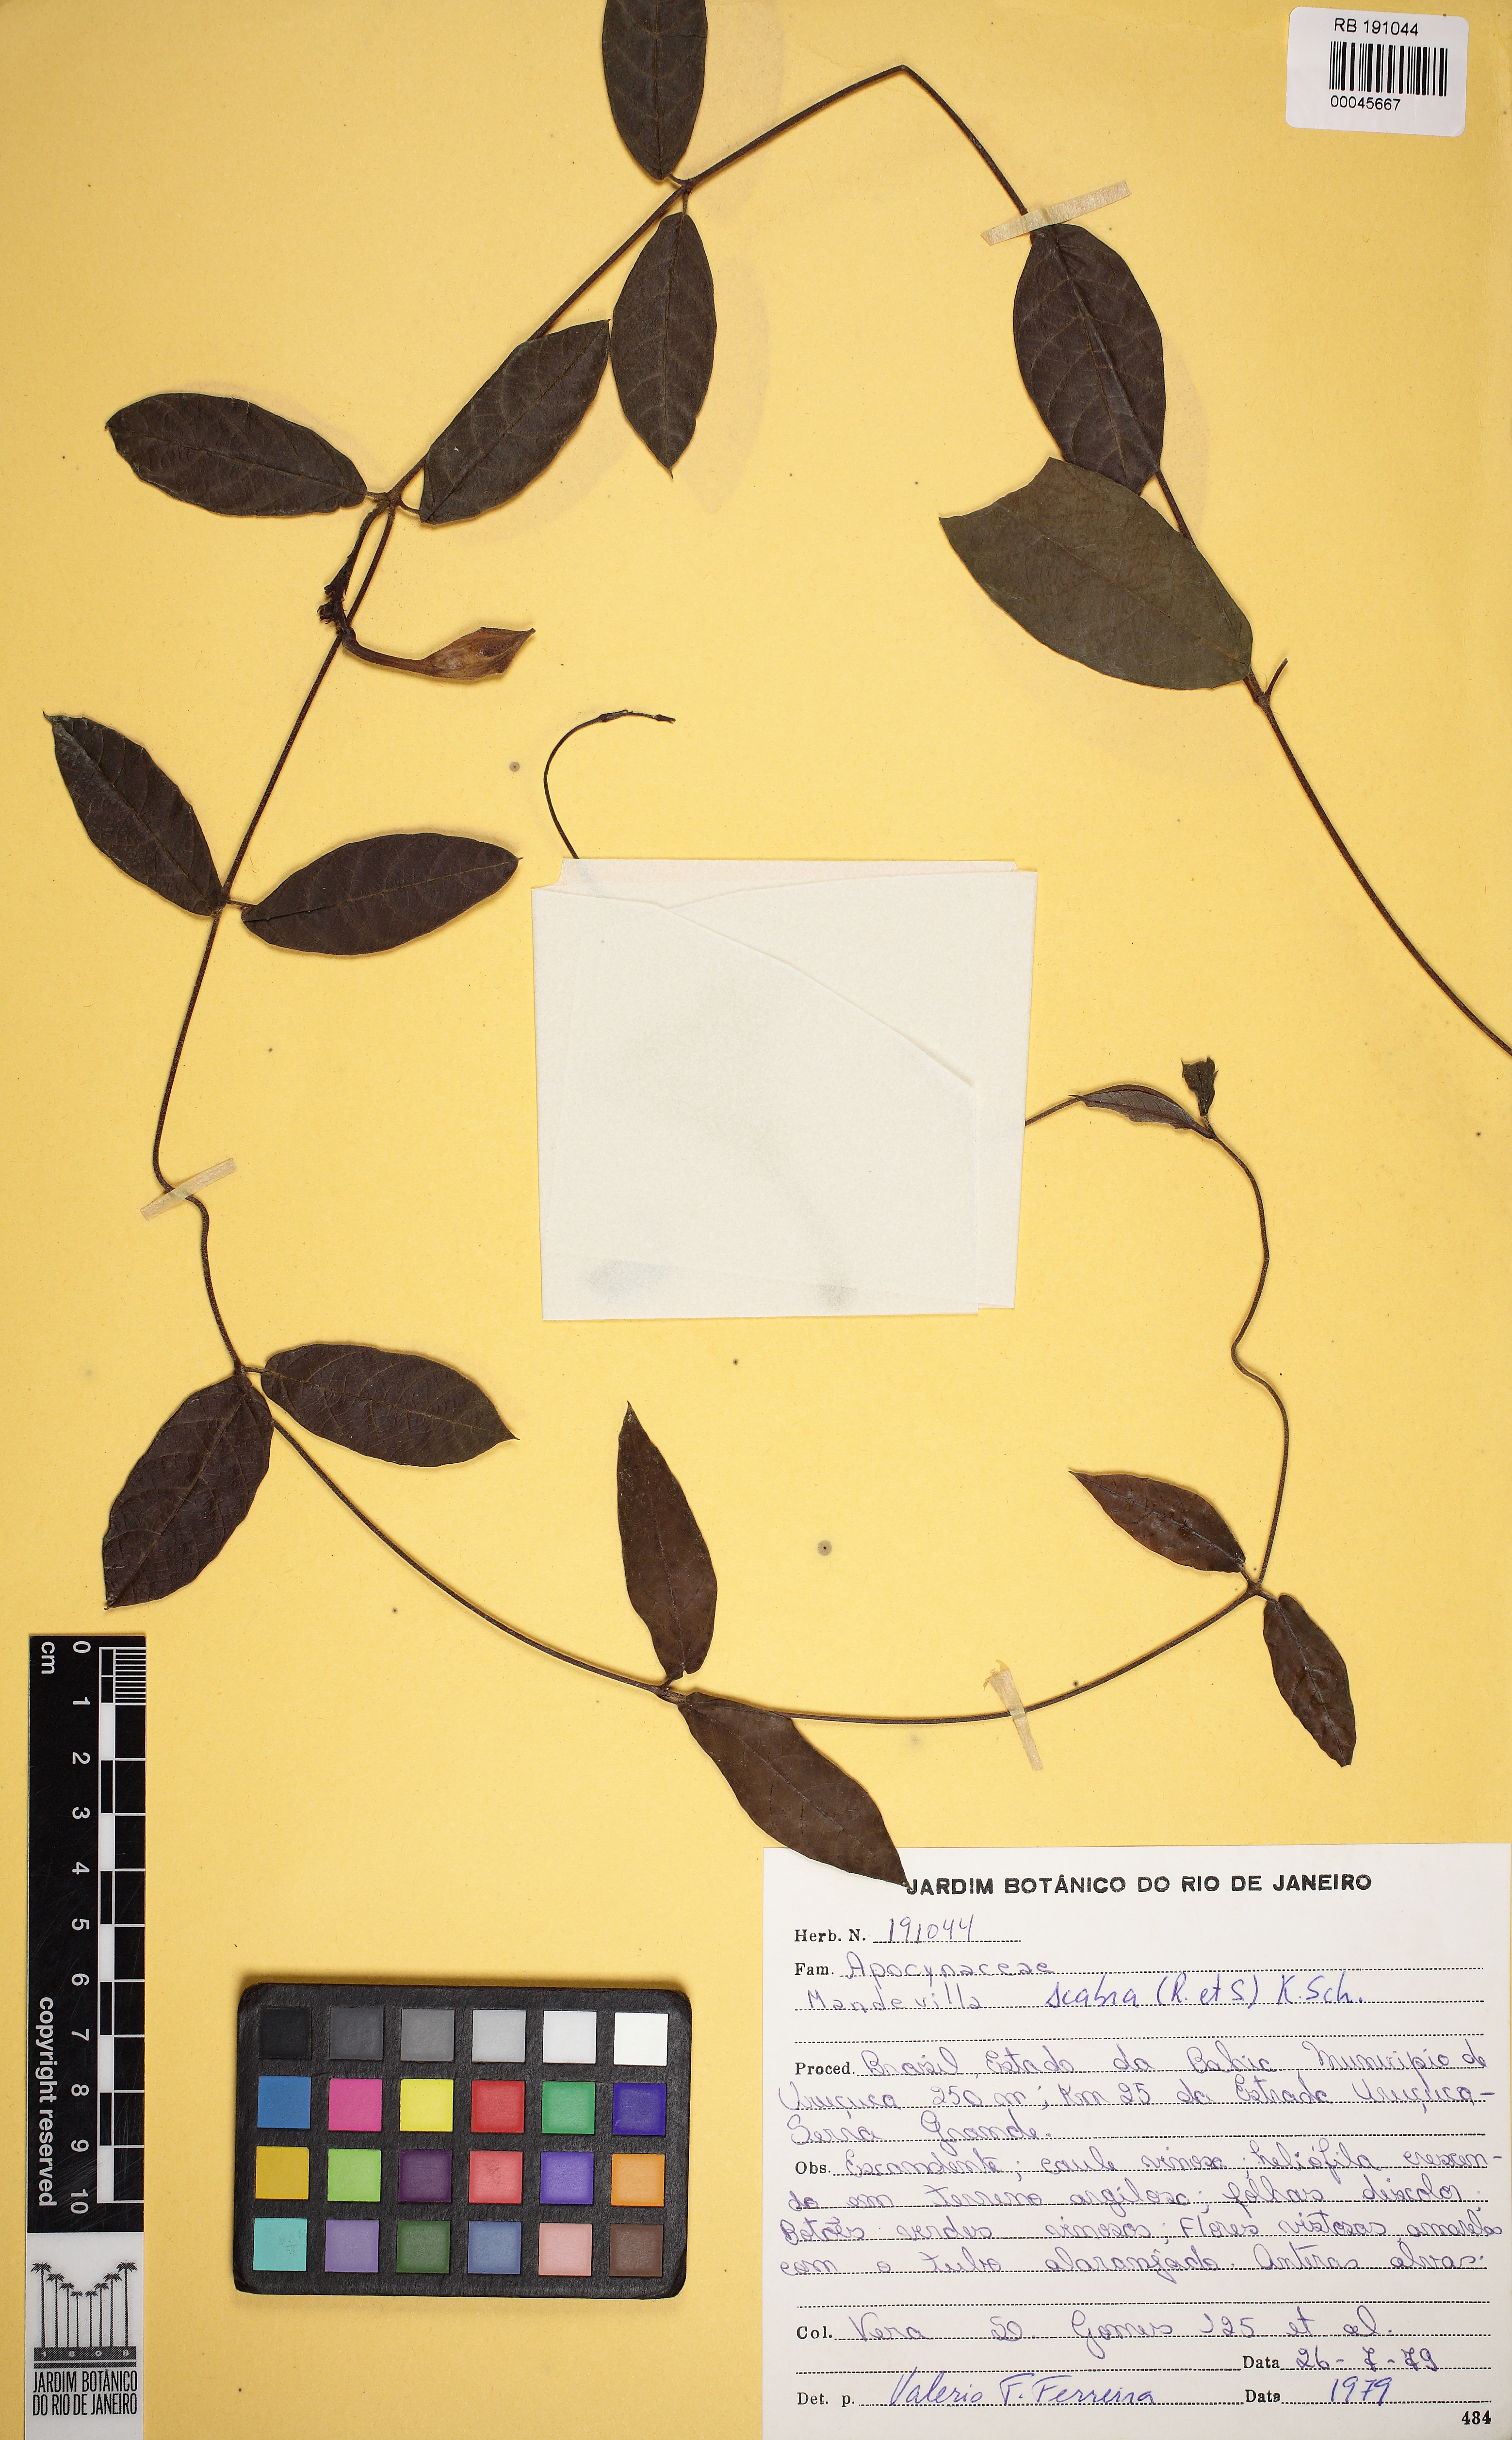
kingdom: Plantae
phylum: Tracheophyta
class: Magnoliopsida
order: Gentianales
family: Apocynaceae
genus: Mandevilla
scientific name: Mandevilla scabra
